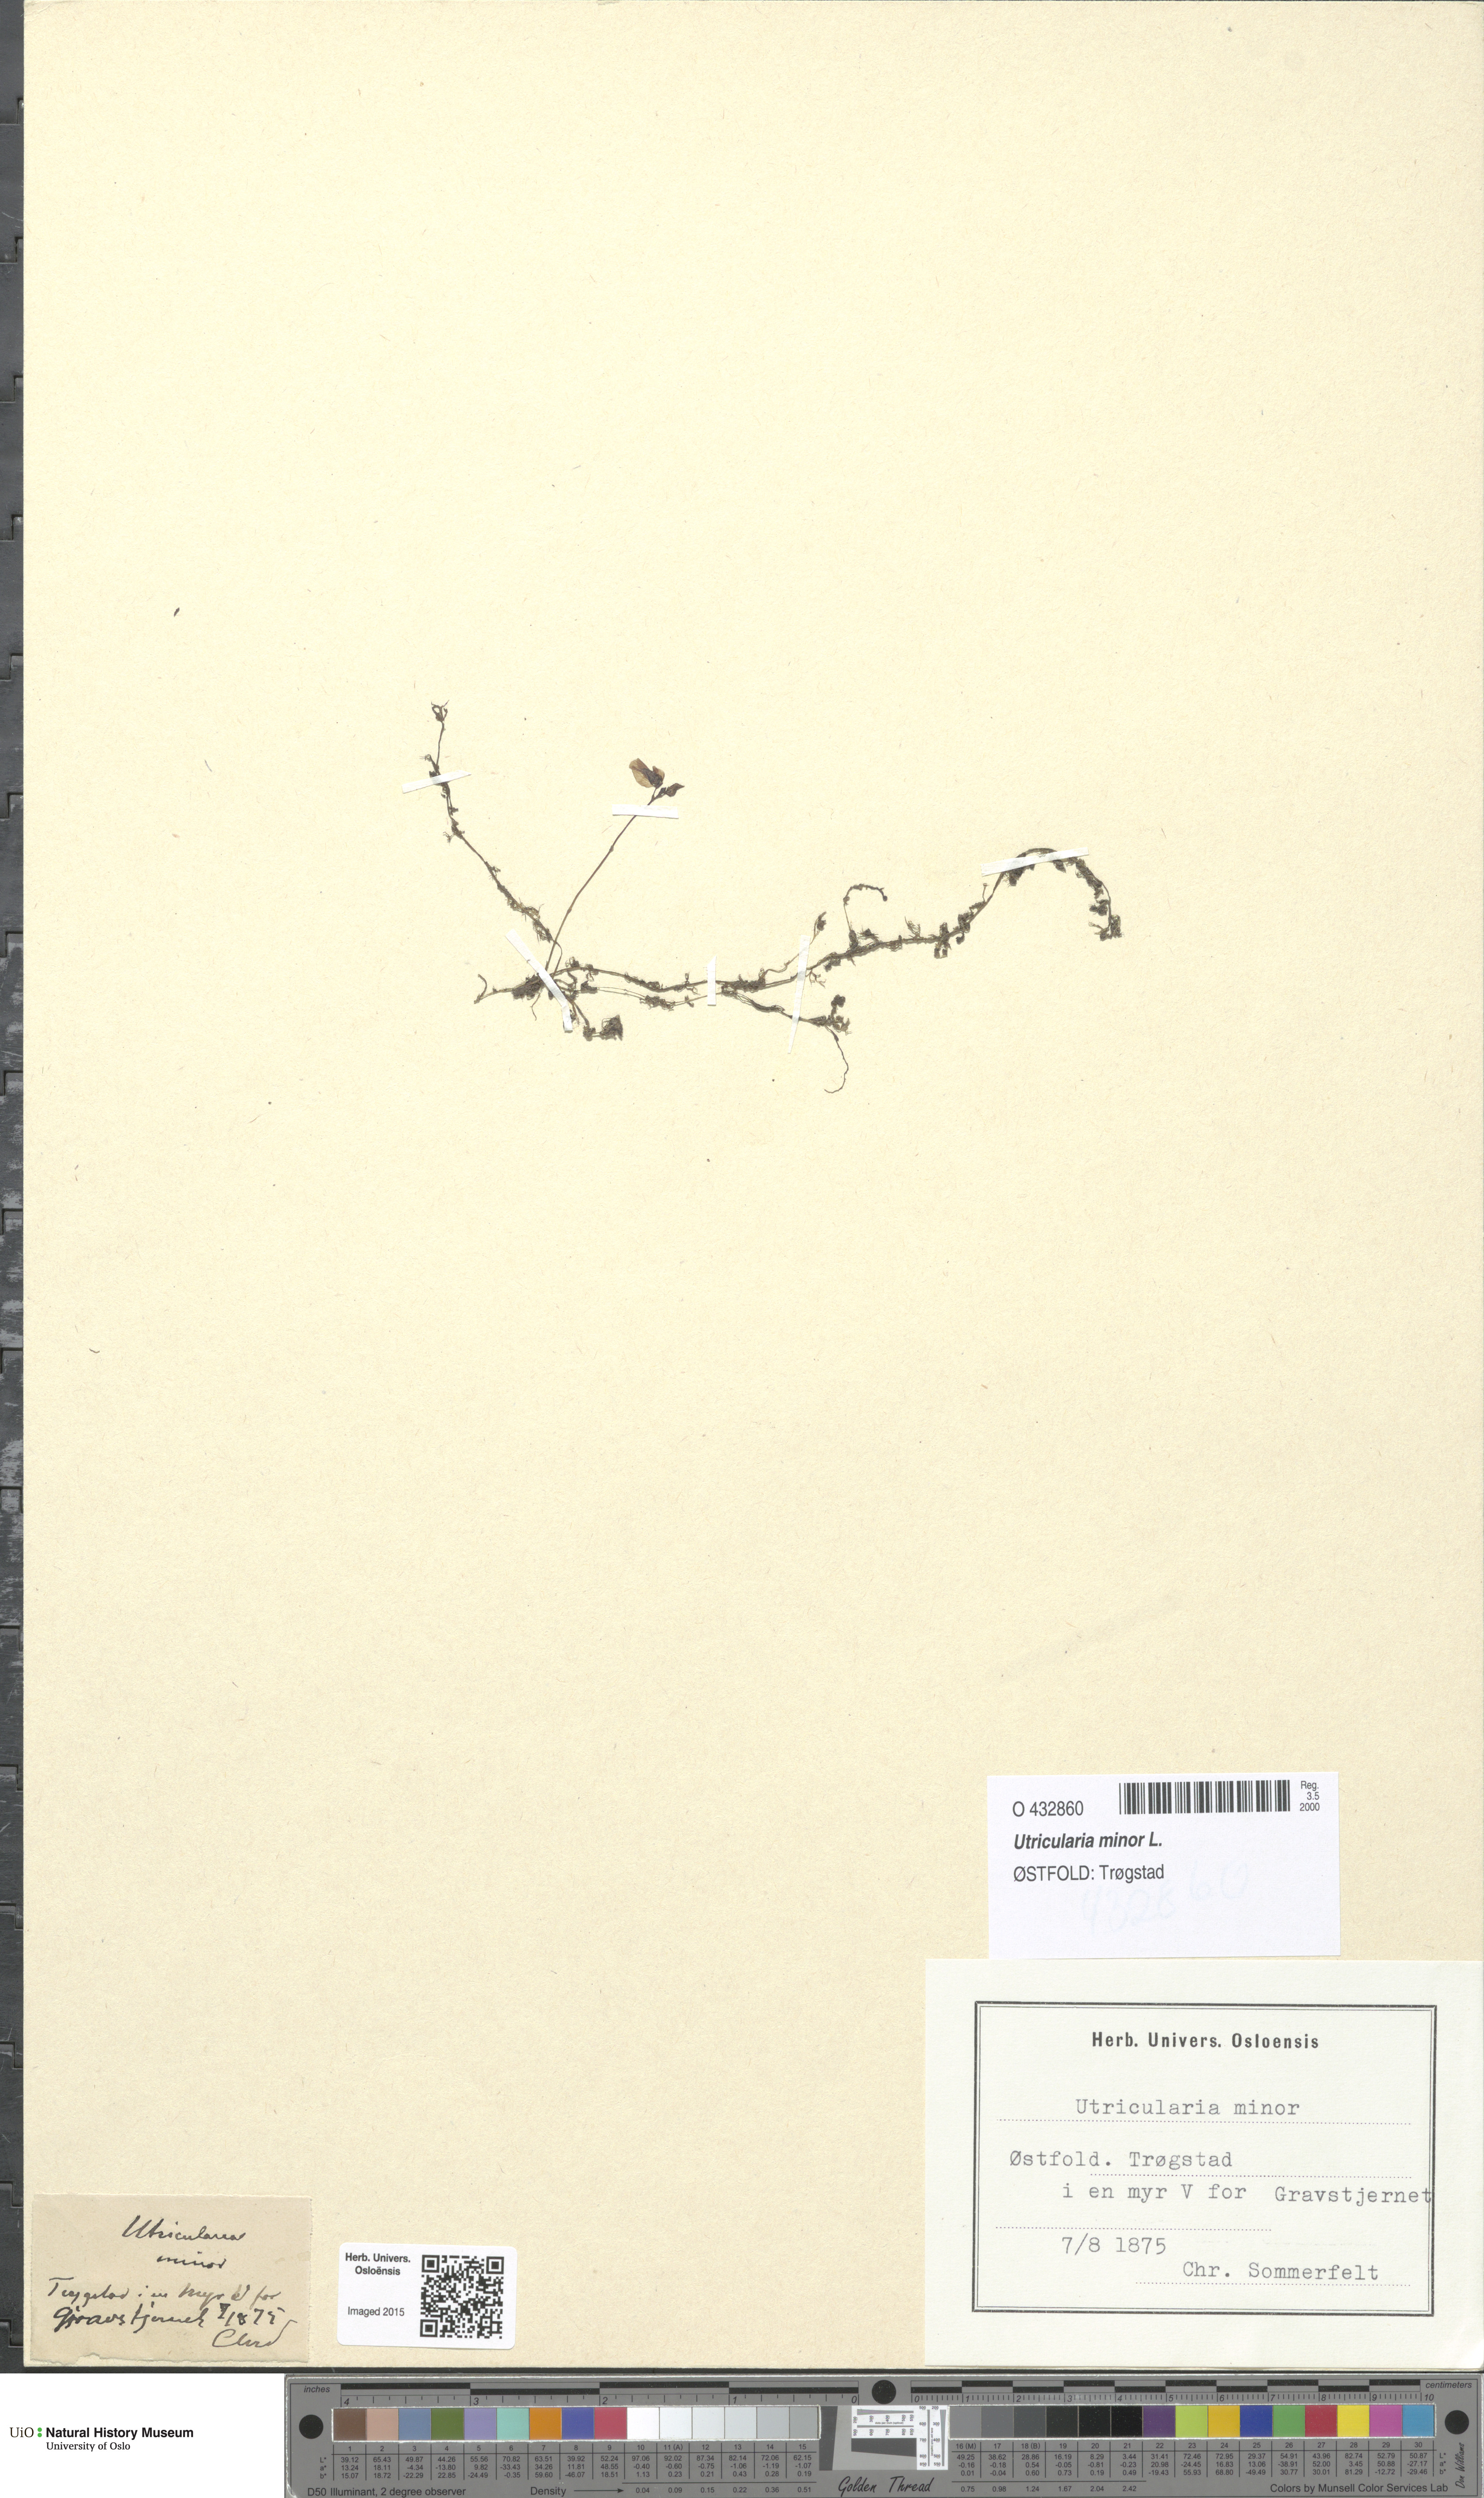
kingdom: Plantae
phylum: Tracheophyta
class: Magnoliopsida
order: Lamiales
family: Lentibulariaceae
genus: Utricularia
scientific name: Utricularia minor
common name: Lesser bladderwort
